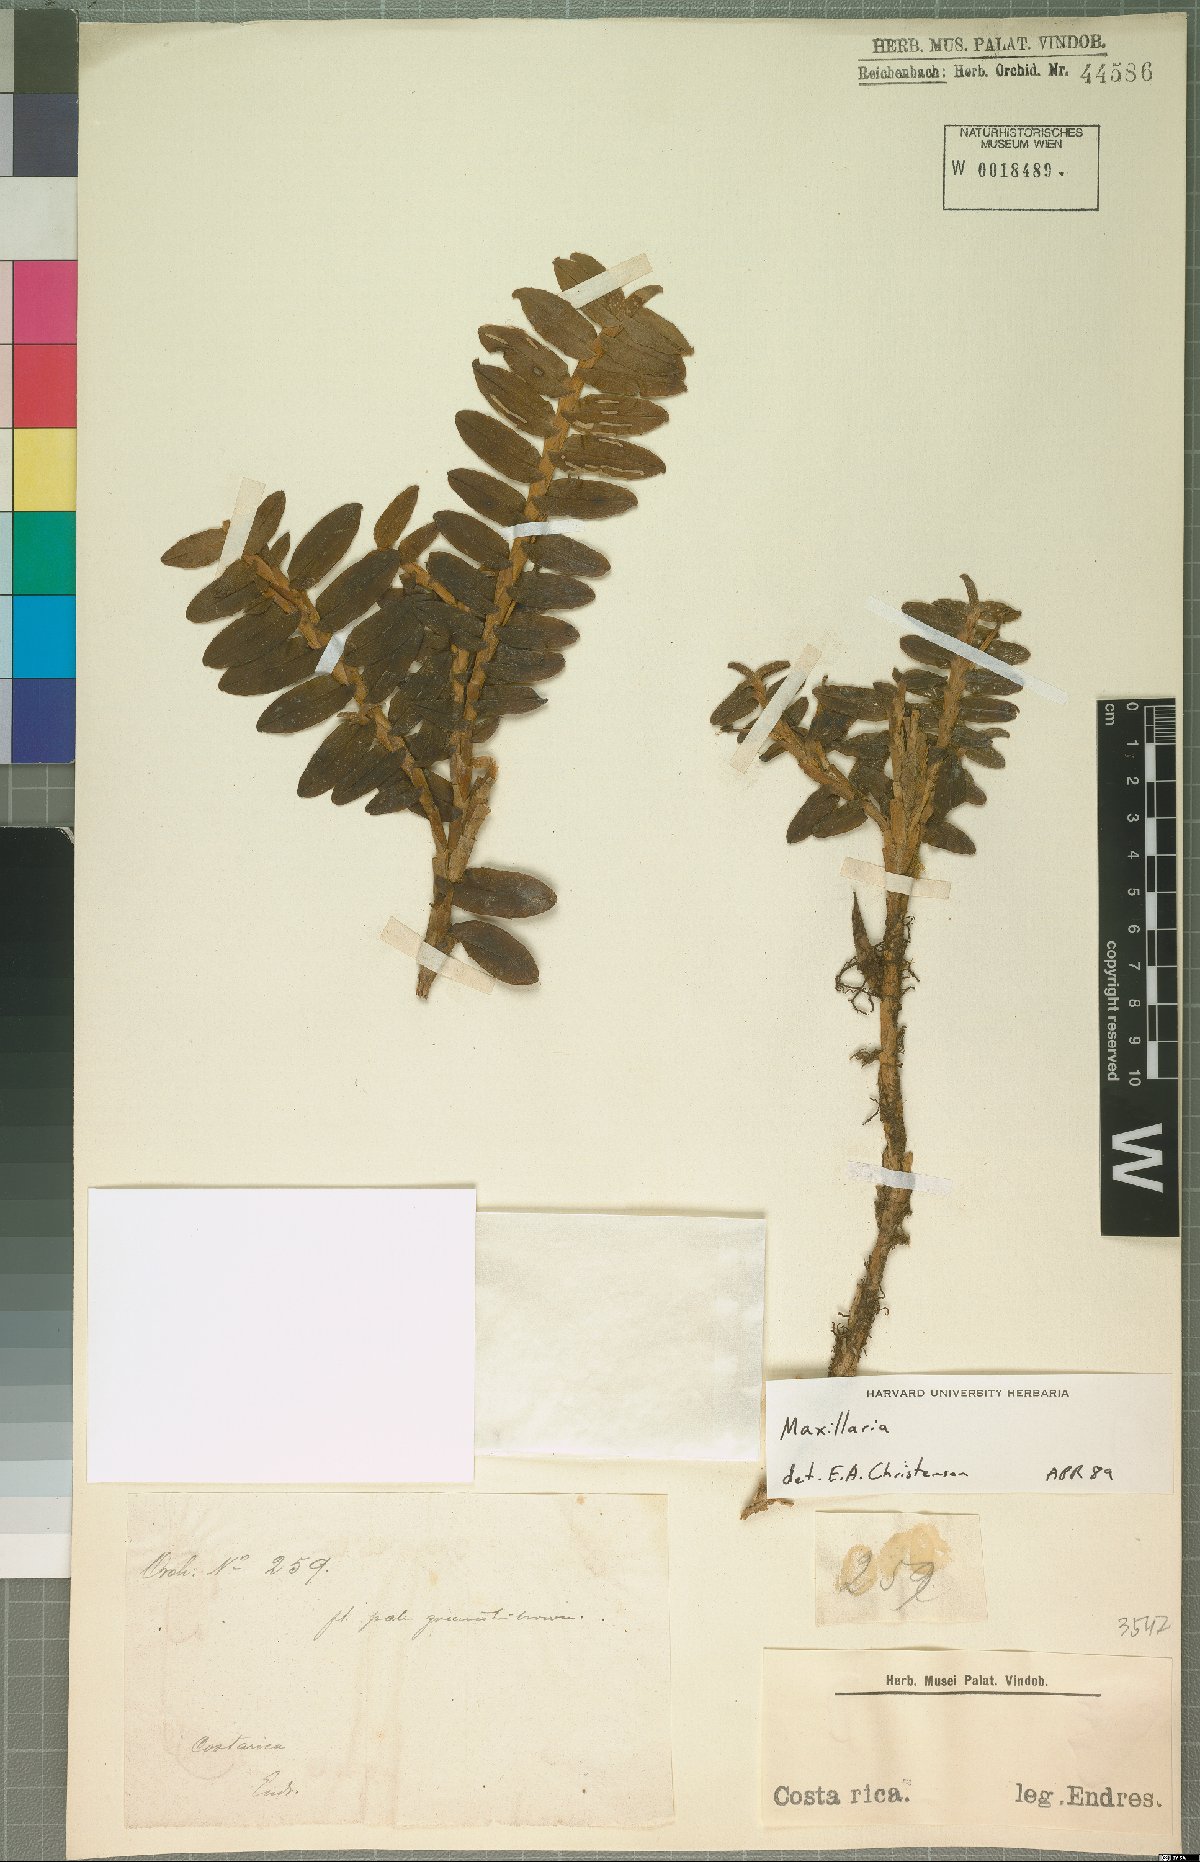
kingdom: Plantae
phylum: Tracheophyta
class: Liliopsida
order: Asparagales
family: Orchidaceae
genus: Maxillaria
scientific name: Maxillaria
